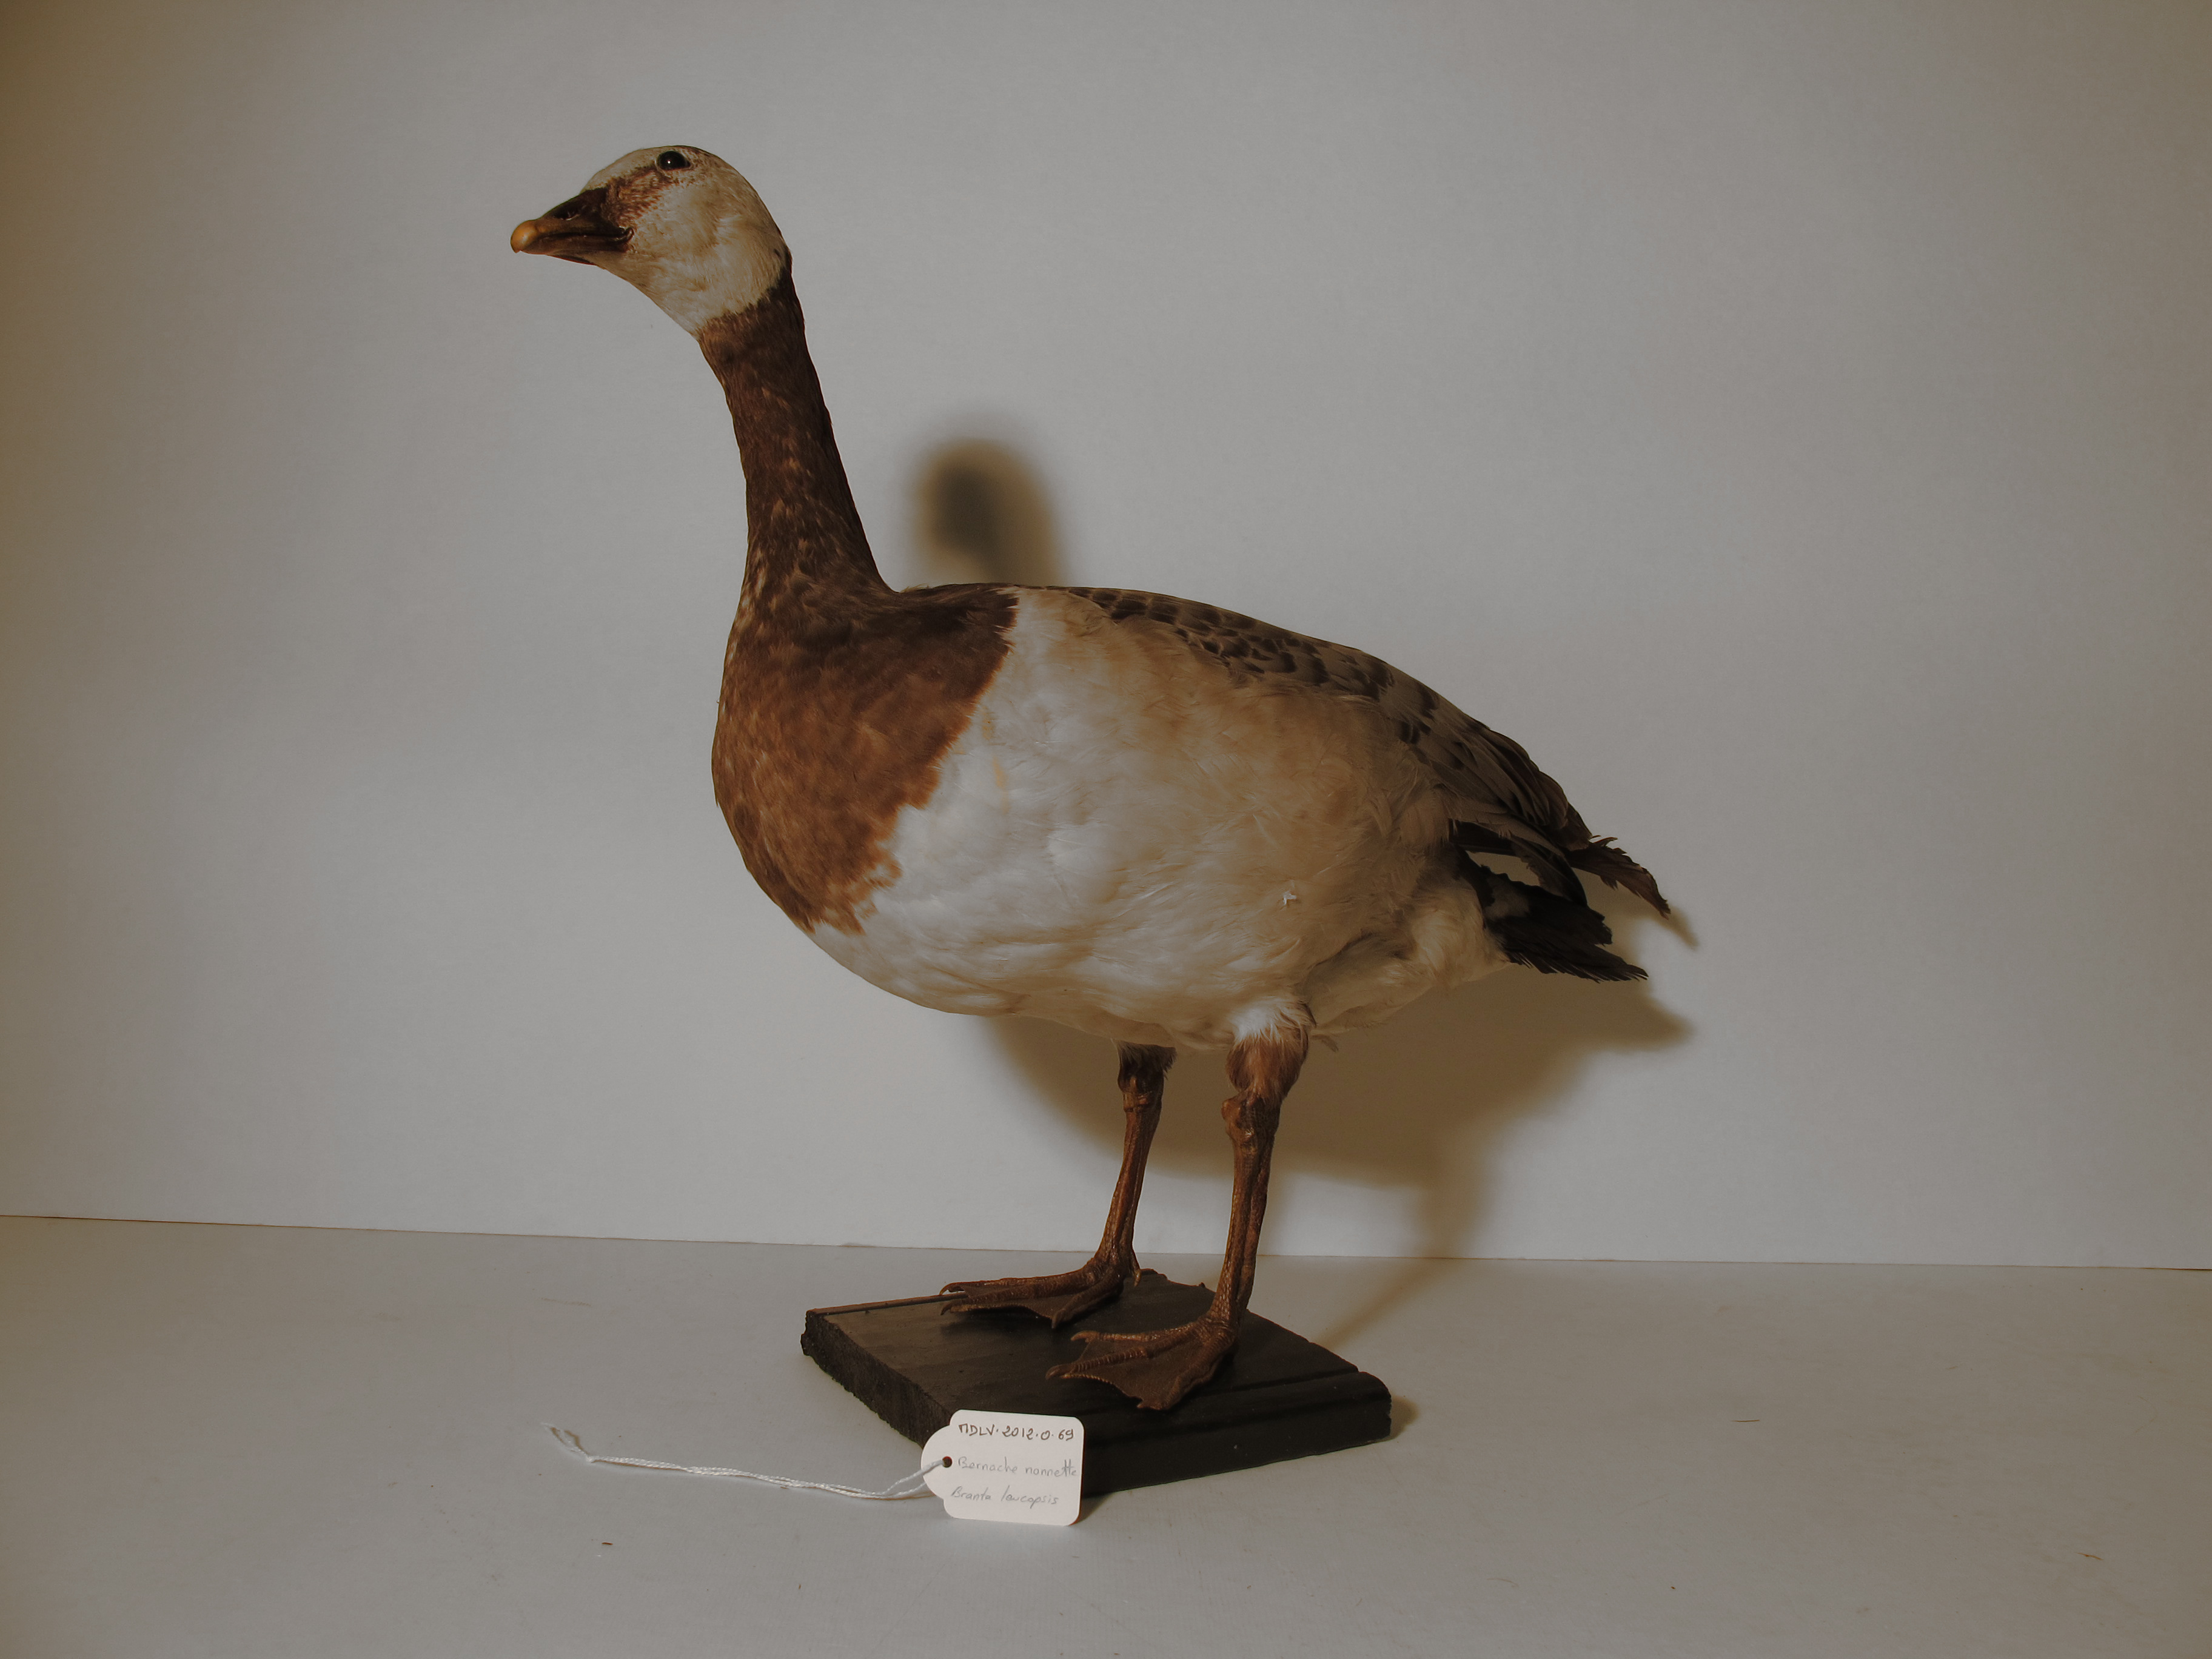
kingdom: Animalia
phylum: Chordata
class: Aves
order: Anseriformes
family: Anatidae
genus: Branta
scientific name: Branta leucopsis
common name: Barnacle Goose
